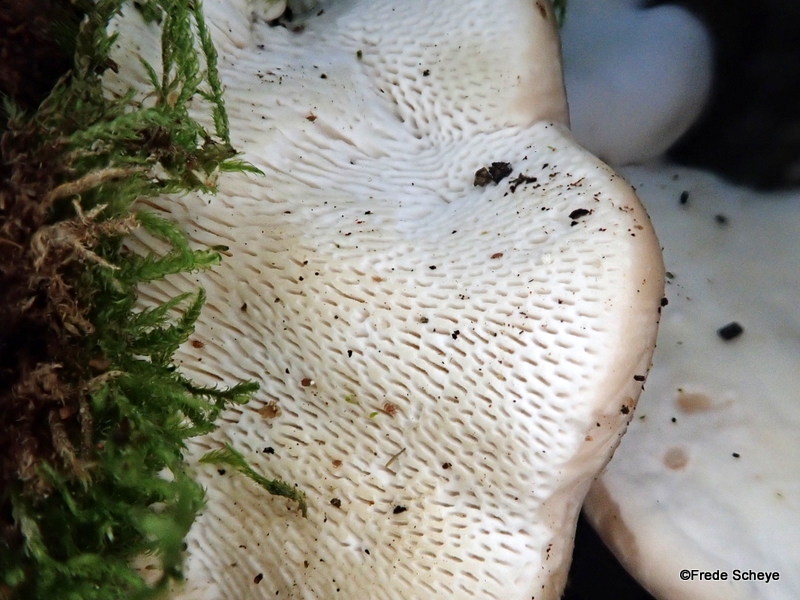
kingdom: Fungi
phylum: Basidiomycota
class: Agaricomycetes
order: Polyporales
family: Polyporaceae
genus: Trametes
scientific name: Trametes gibbosa
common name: puklet læderporesvamp
